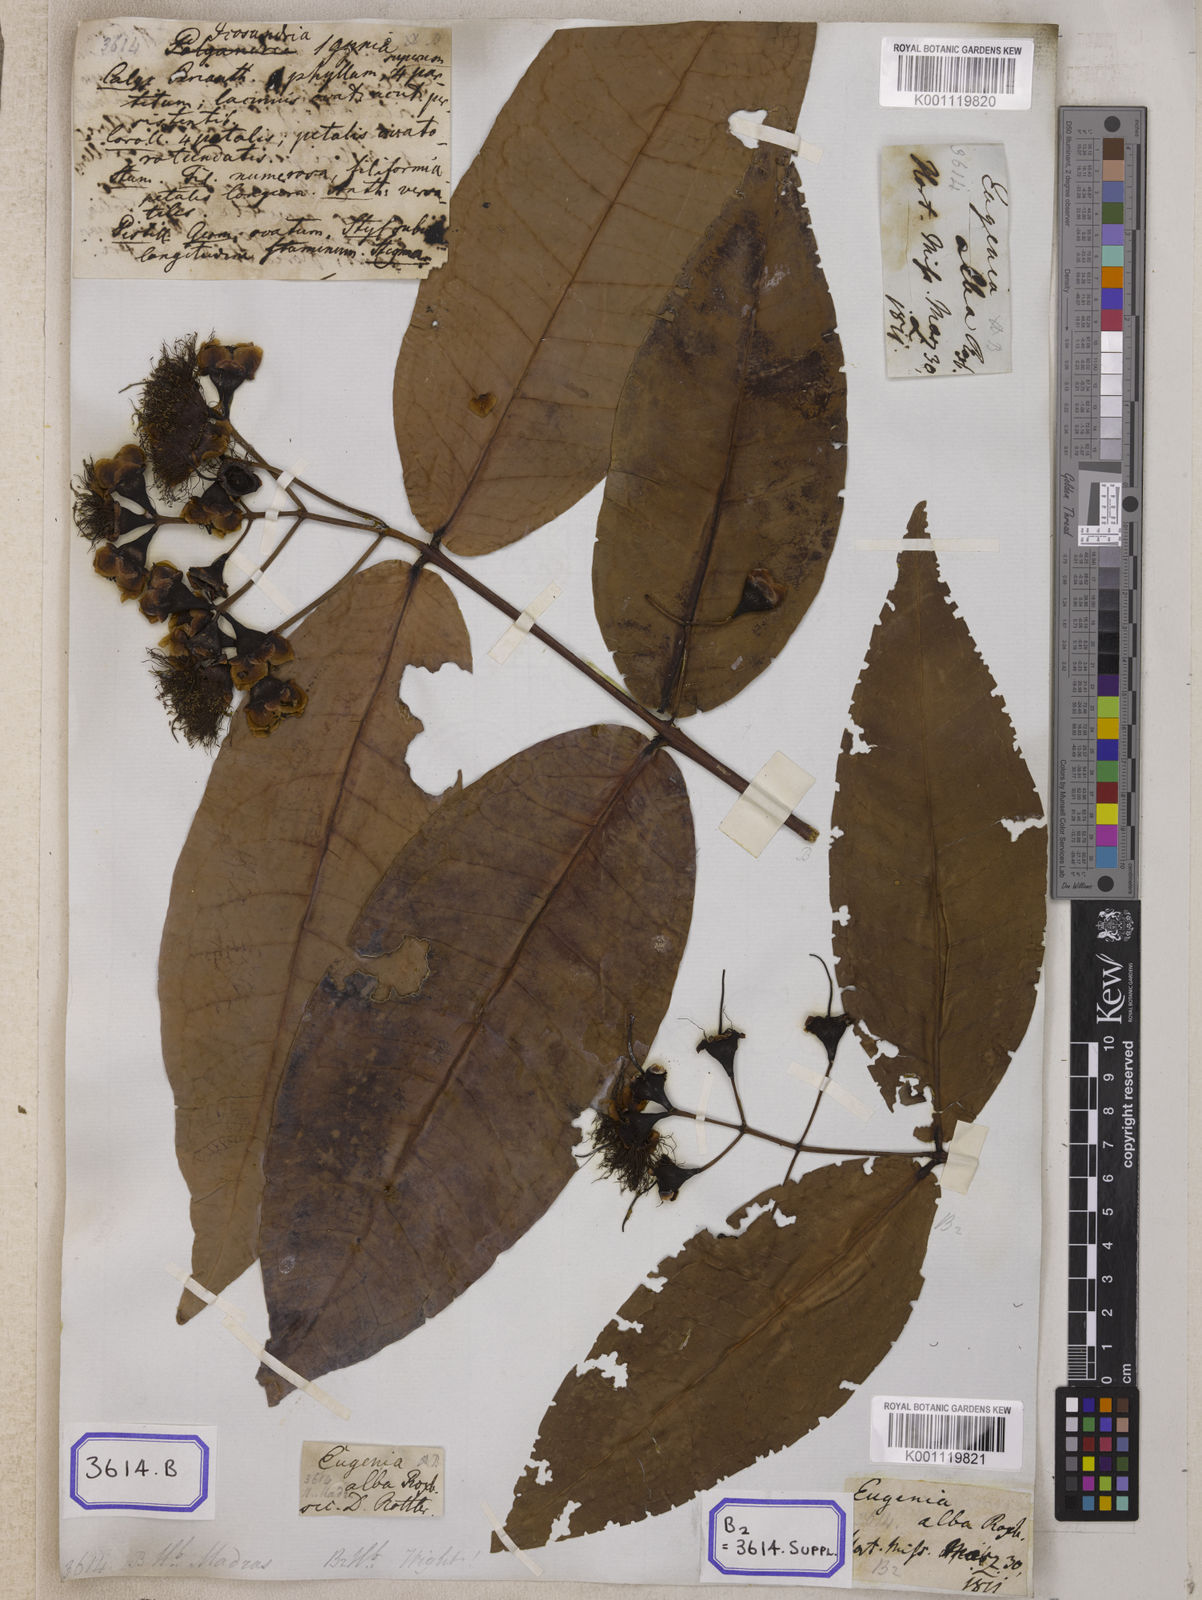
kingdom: Plantae
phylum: Tracheophyta
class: Magnoliopsida
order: Myrtales
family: Myrtaceae
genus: Syzygium
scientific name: Syzygium aqueum
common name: Water-apple
